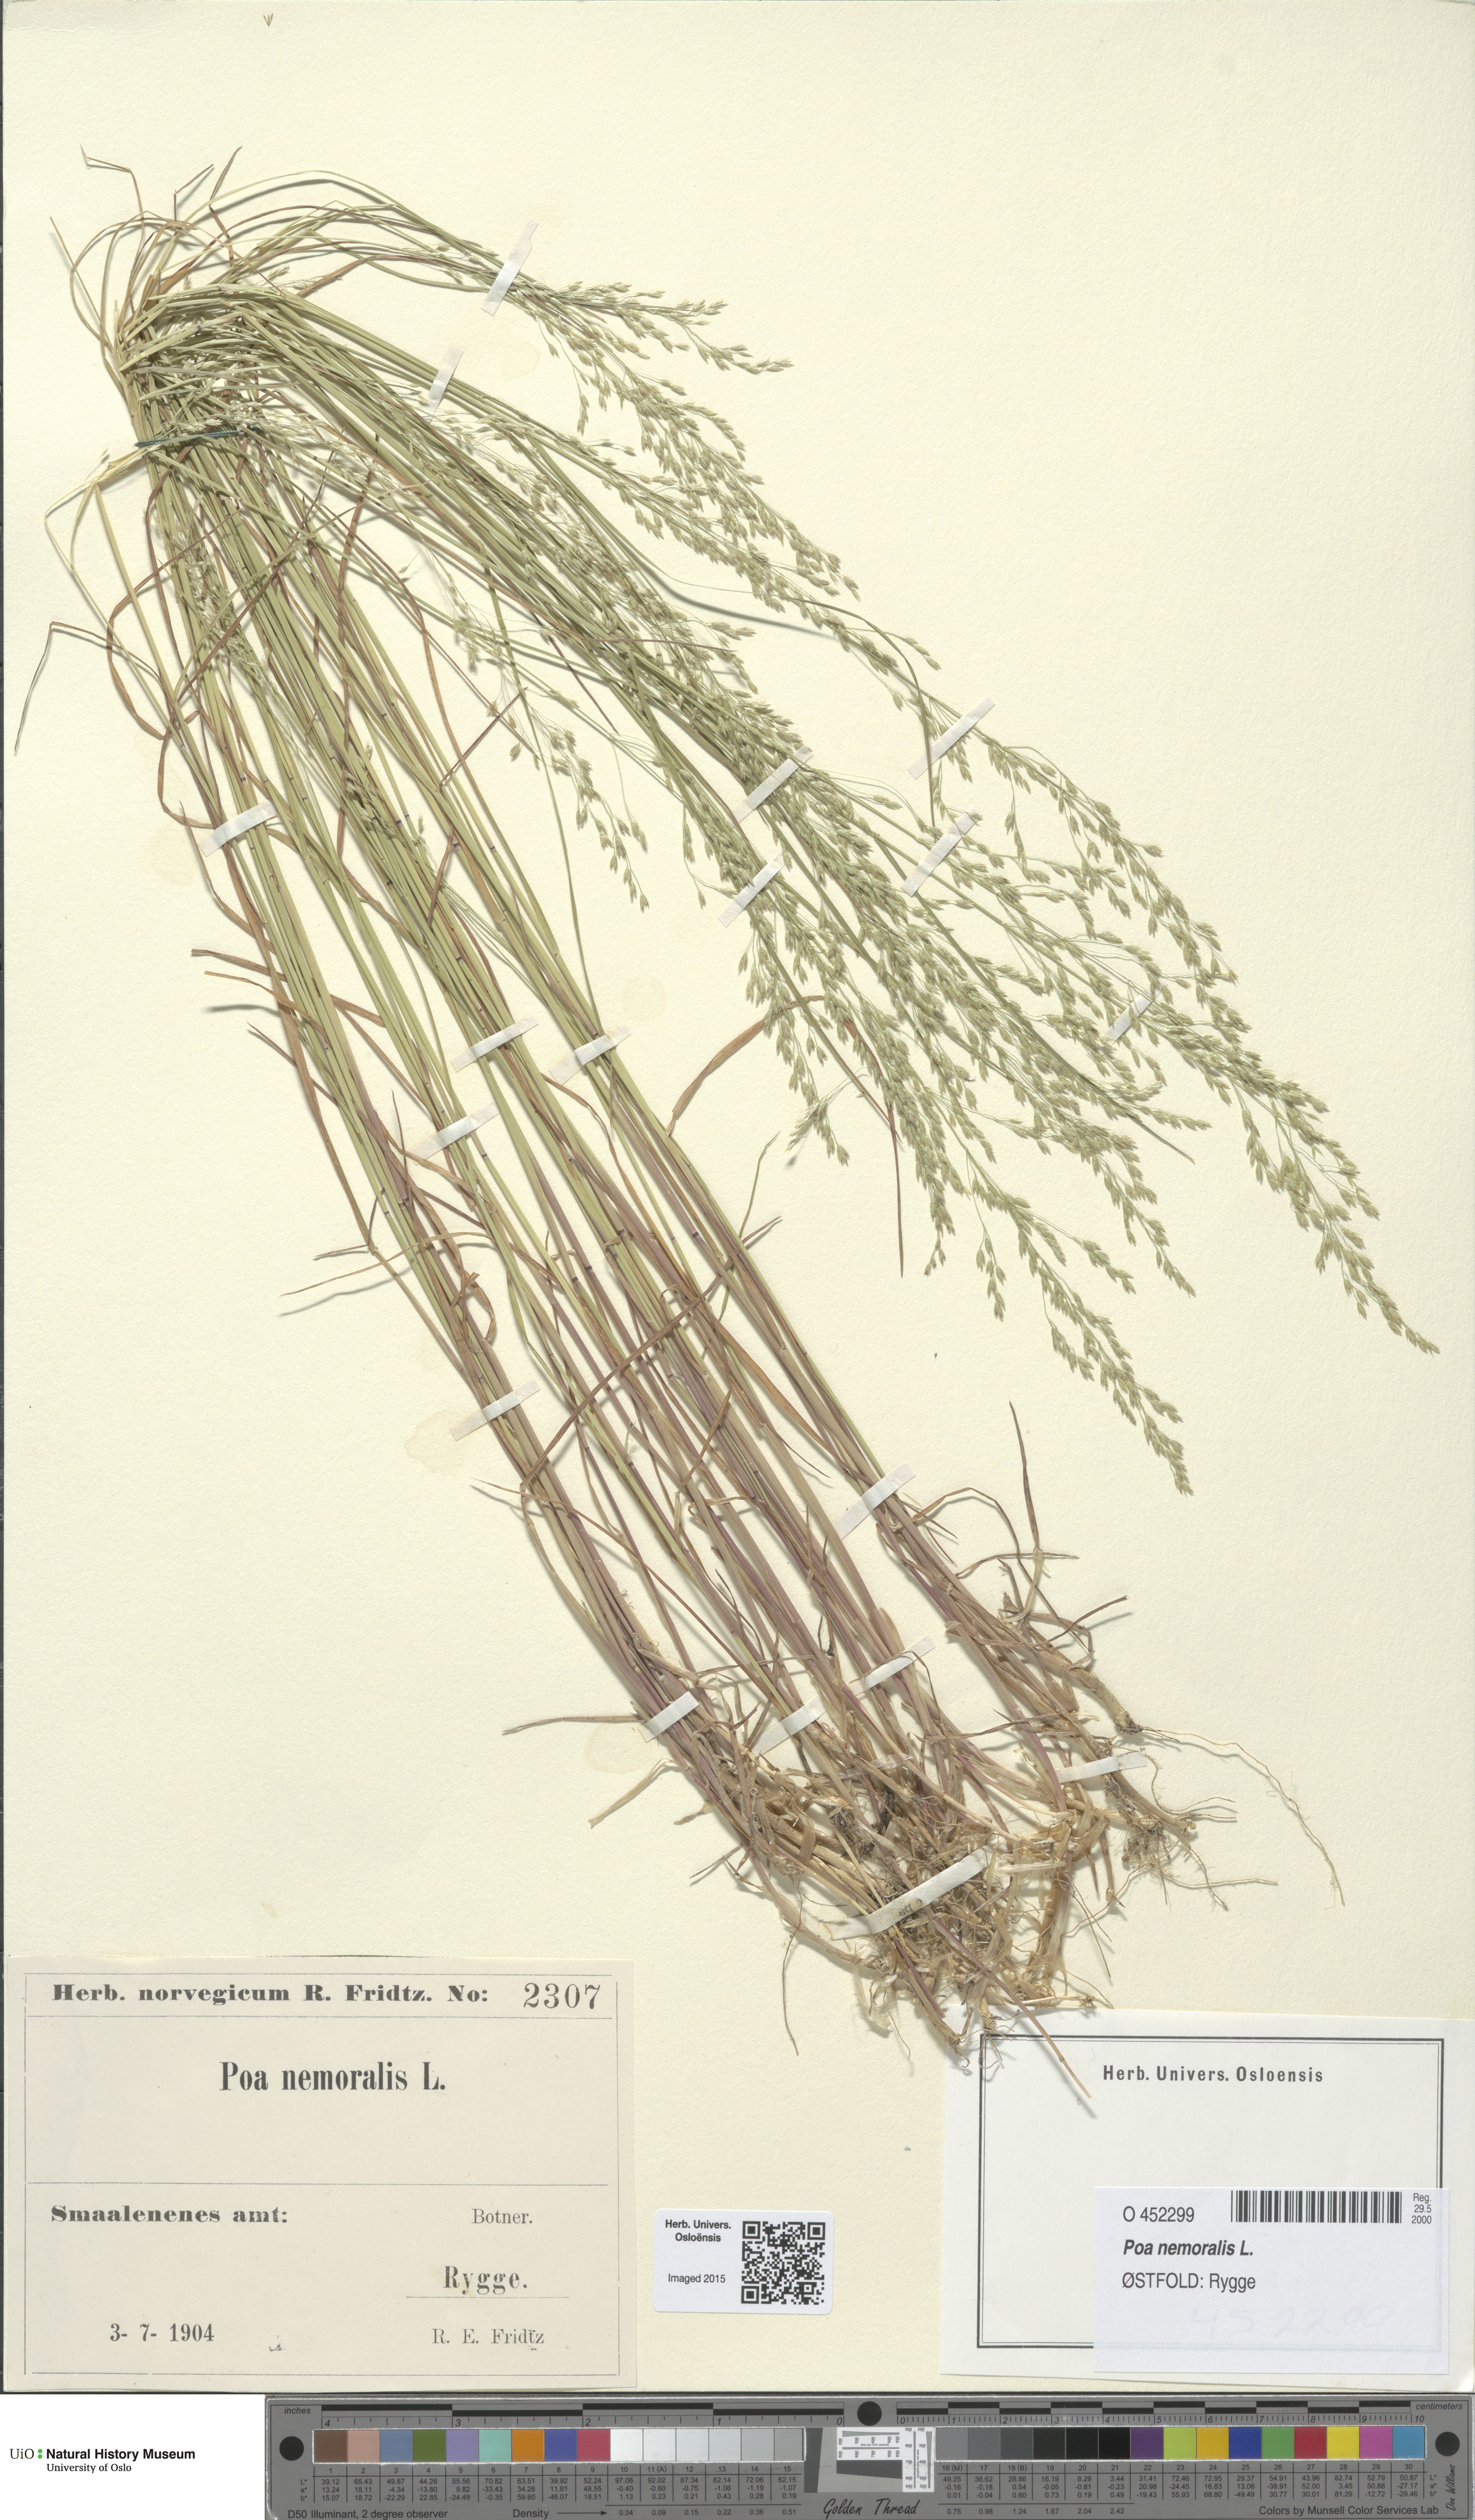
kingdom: Plantae
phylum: Tracheophyta
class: Liliopsida
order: Poales
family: Poaceae
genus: Poa
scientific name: Poa nemoralis
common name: Wood bluegrass
